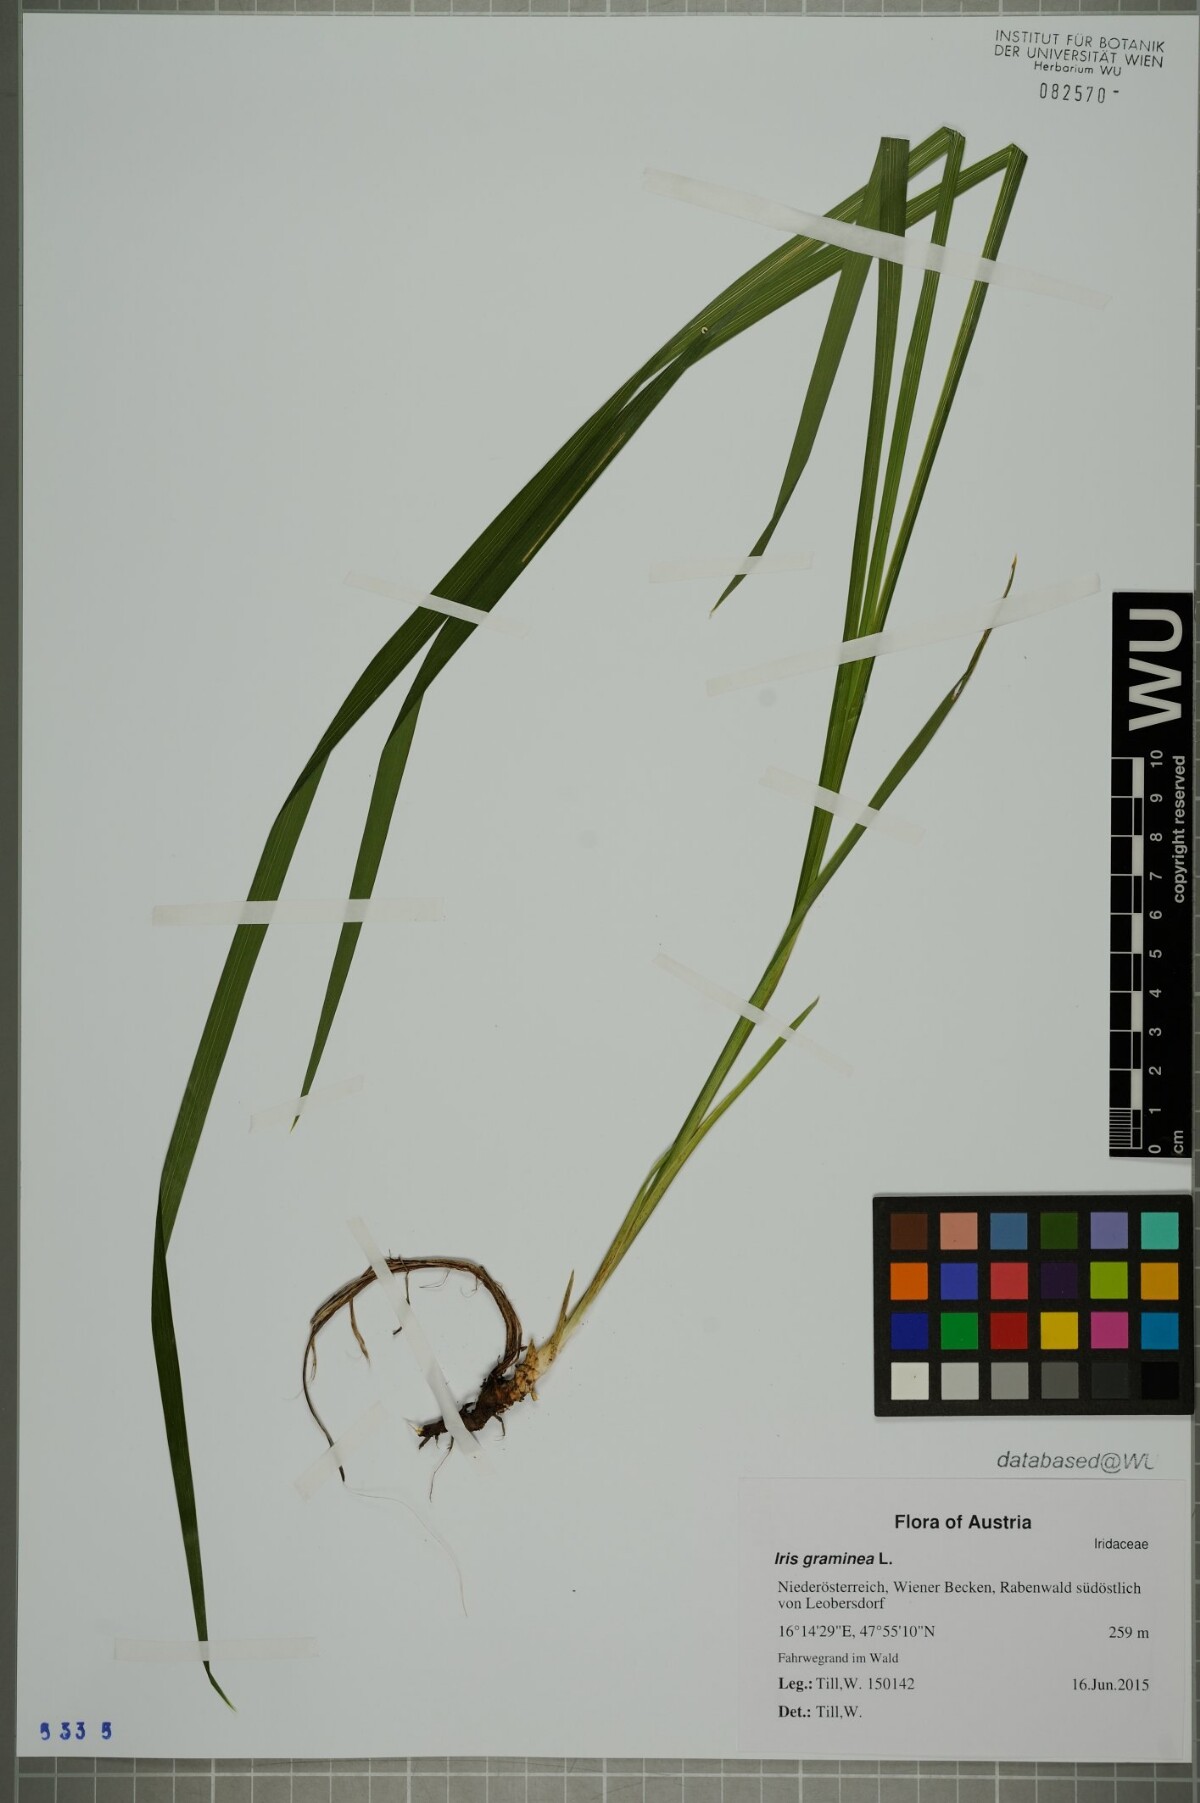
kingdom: Plantae
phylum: Tracheophyta
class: Liliopsida
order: Asparagales
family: Iridaceae
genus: Iris
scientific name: Iris graminea
